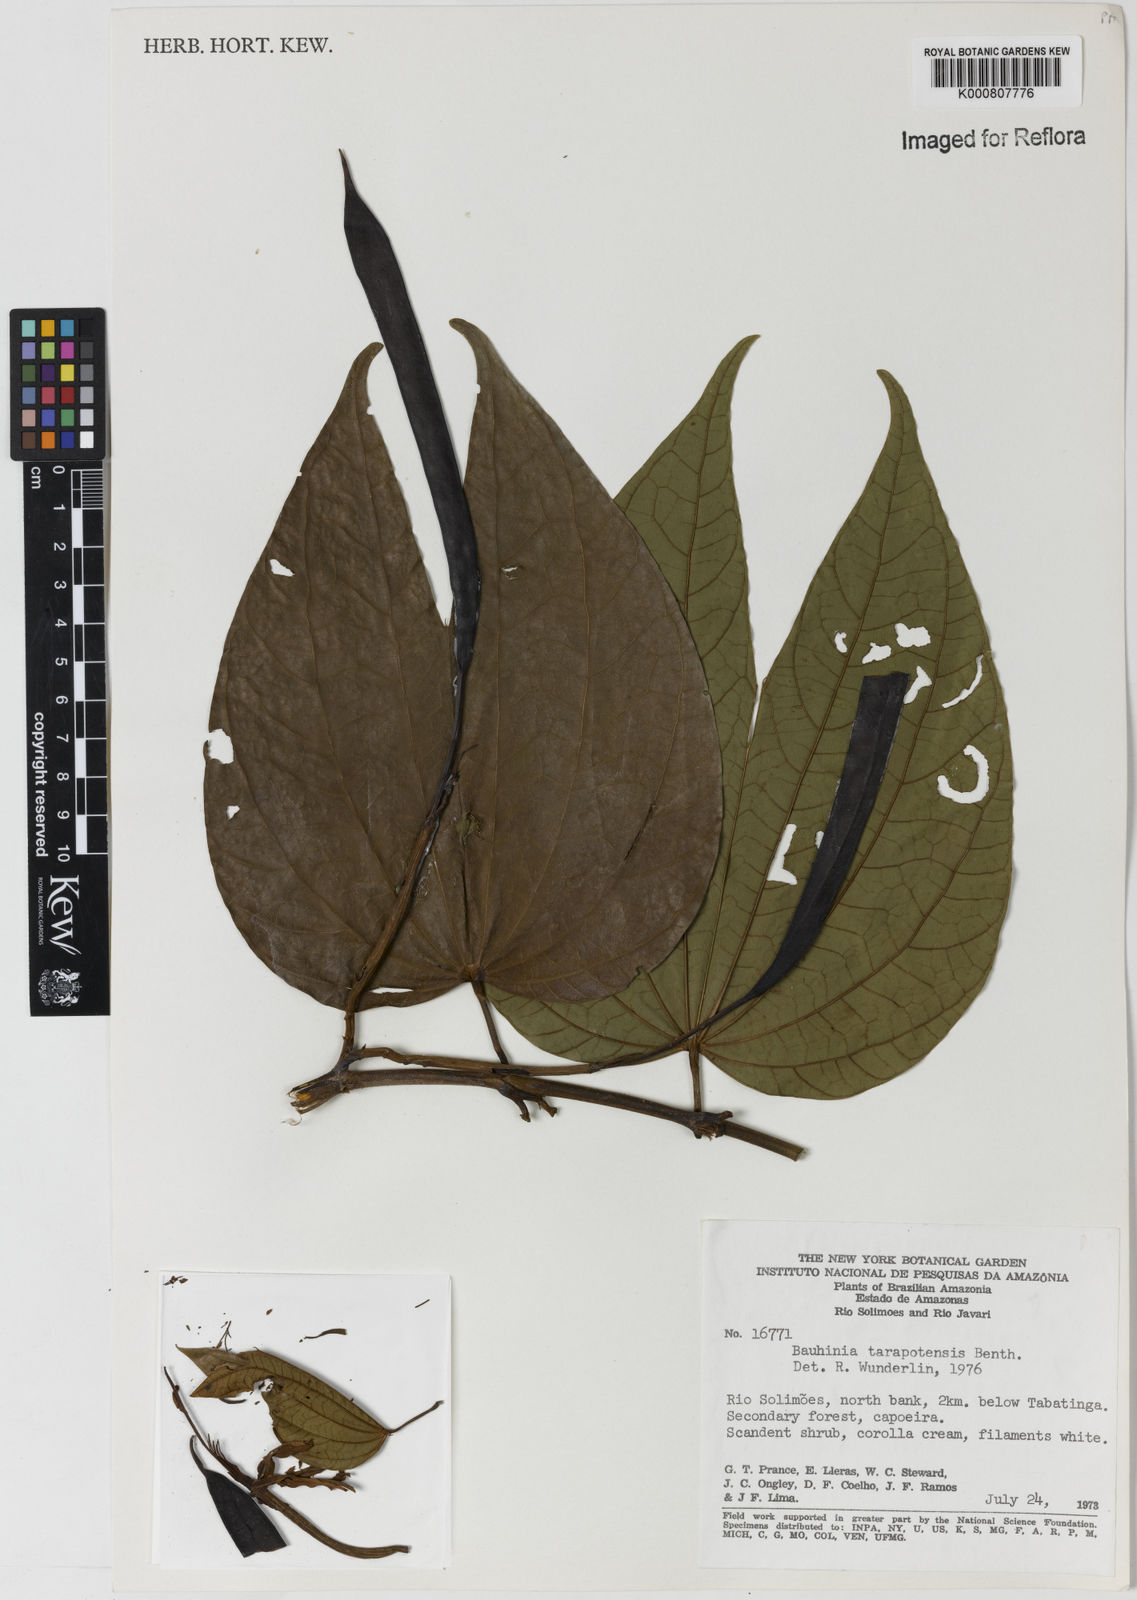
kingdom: Plantae
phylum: Tracheophyta
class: Magnoliopsida
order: Fabales
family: Fabaceae
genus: Bauhinia
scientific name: Bauhinia tarapotensis
